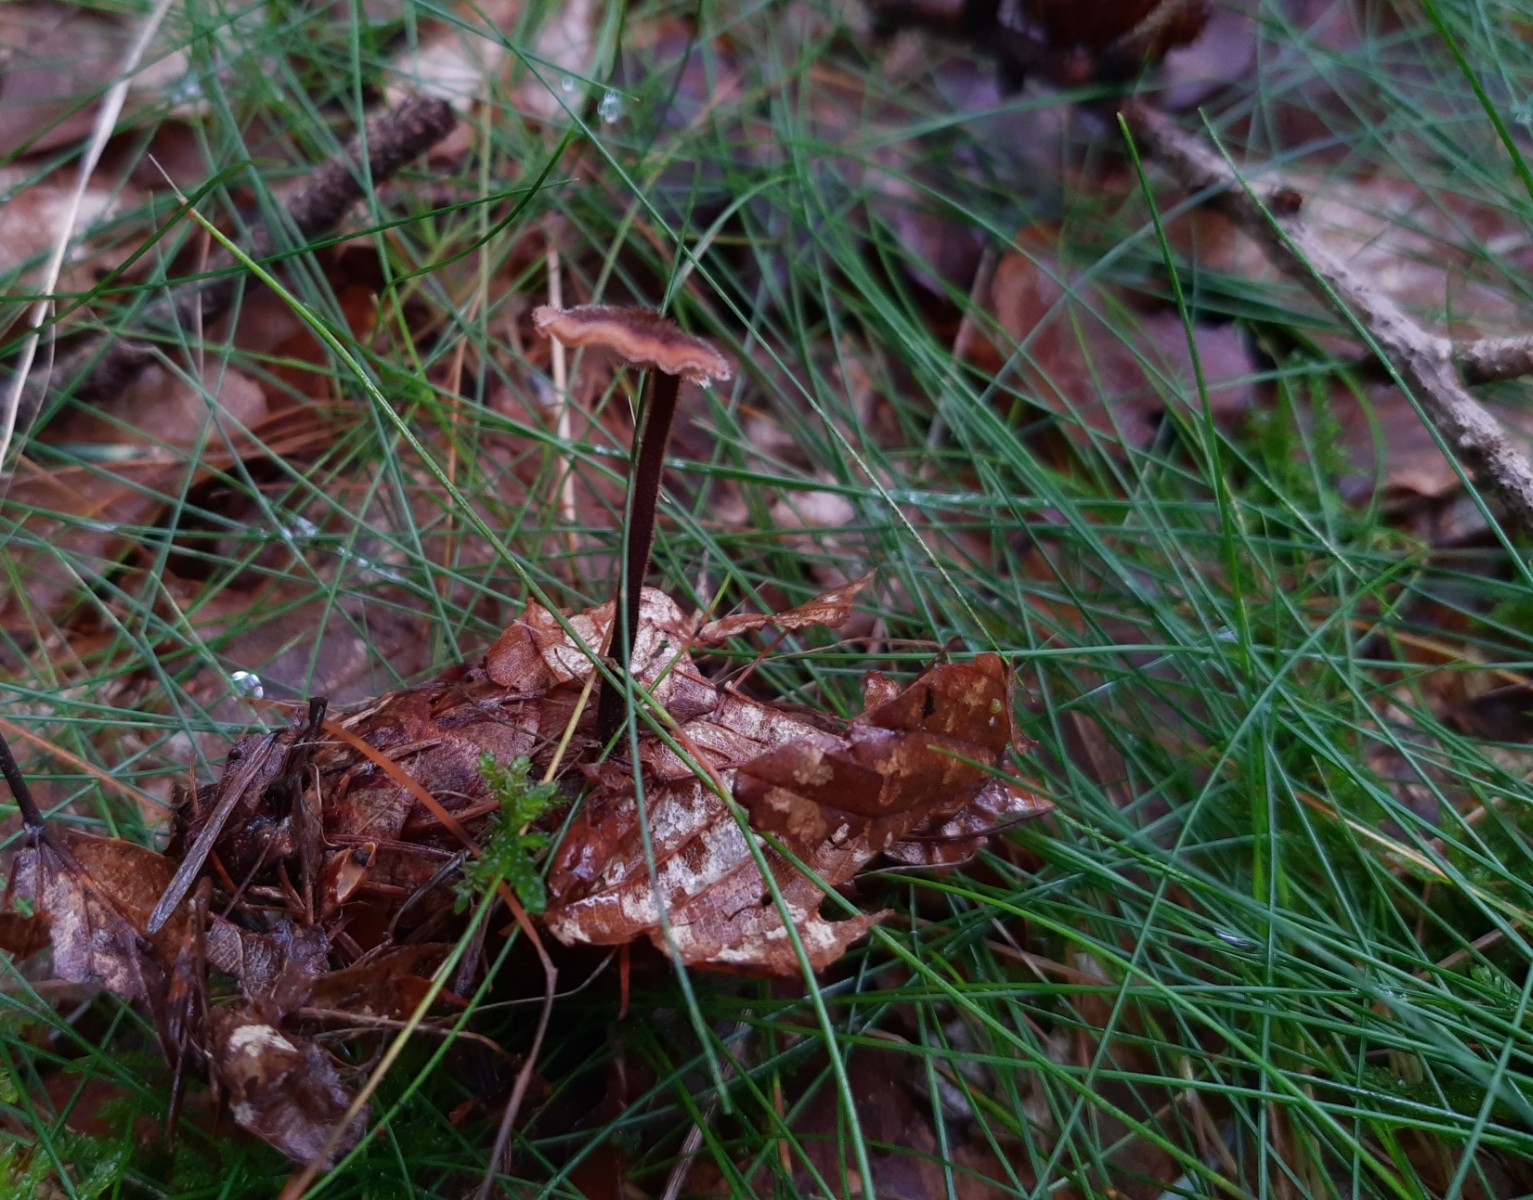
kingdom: Fungi
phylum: Basidiomycota
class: Agaricomycetes
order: Russulales
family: Auriscalpiaceae
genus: Auriscalpium
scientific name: Auriscalpium vulgare
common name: koglepigsvamp
